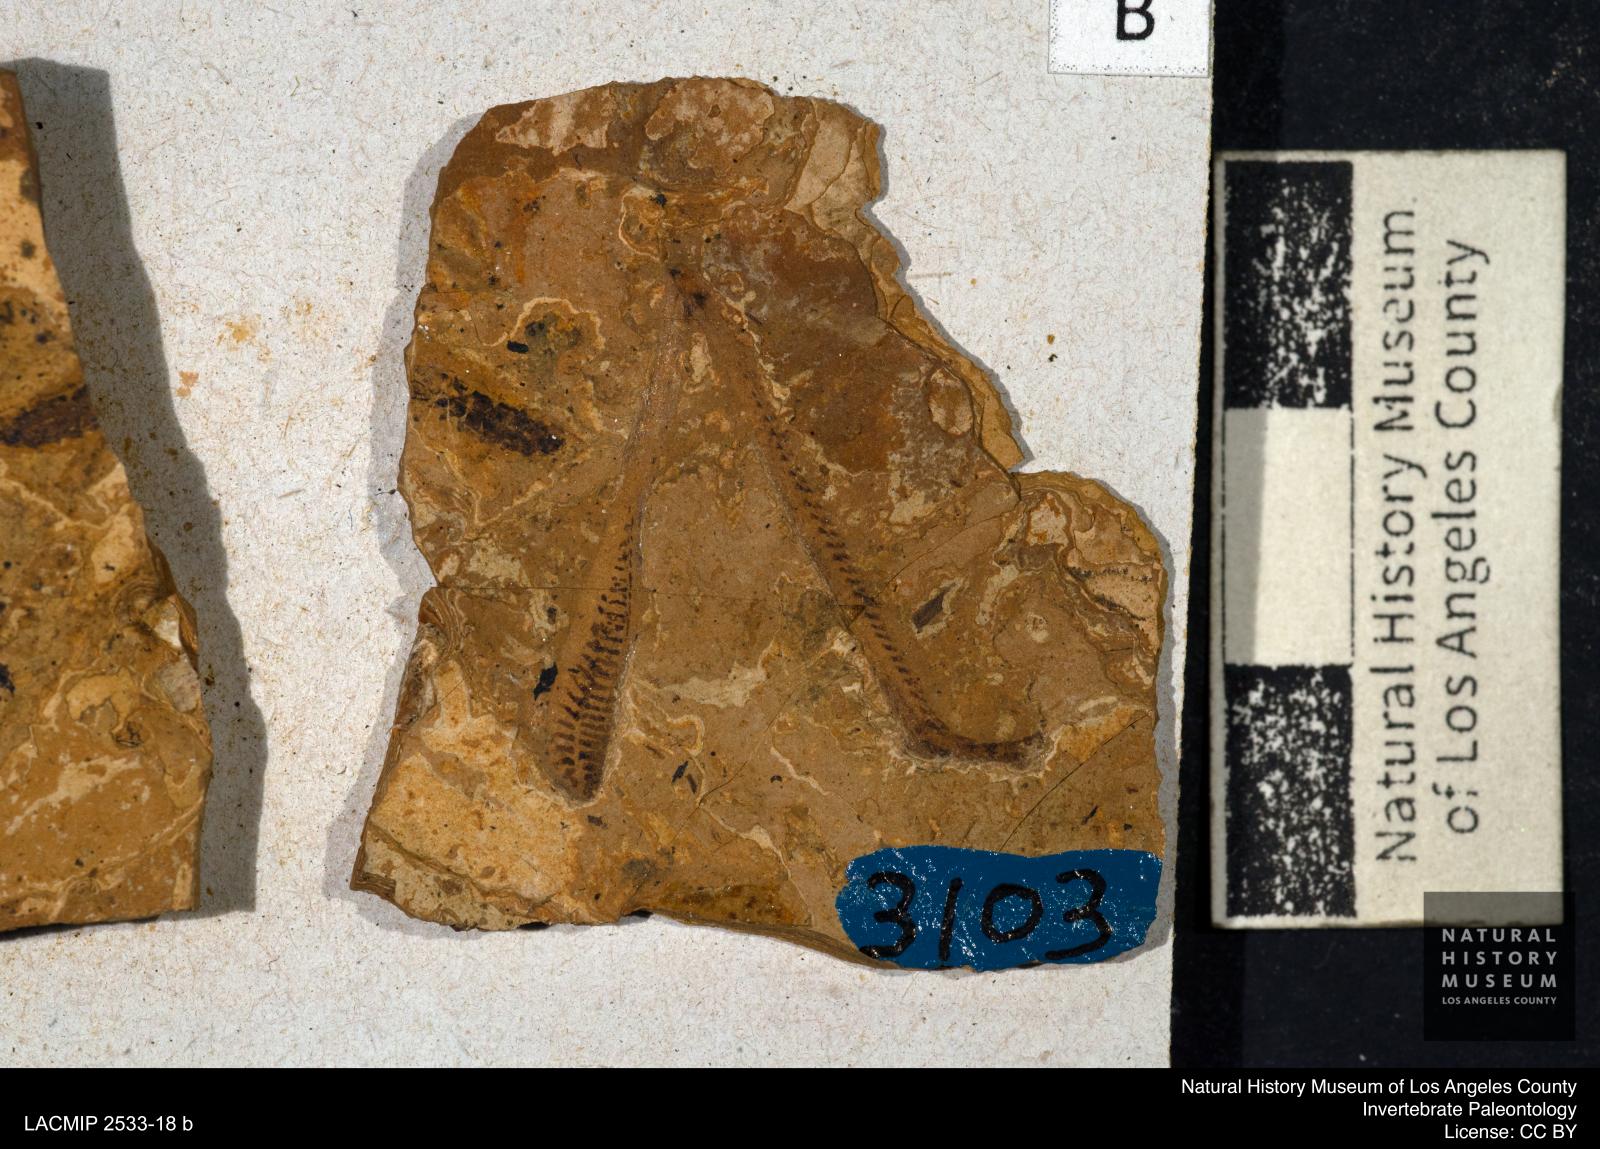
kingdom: Animalia
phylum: Arthropoda
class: Insecta
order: Orthoptera
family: Tettigoniidae
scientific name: Tettigoniidae
